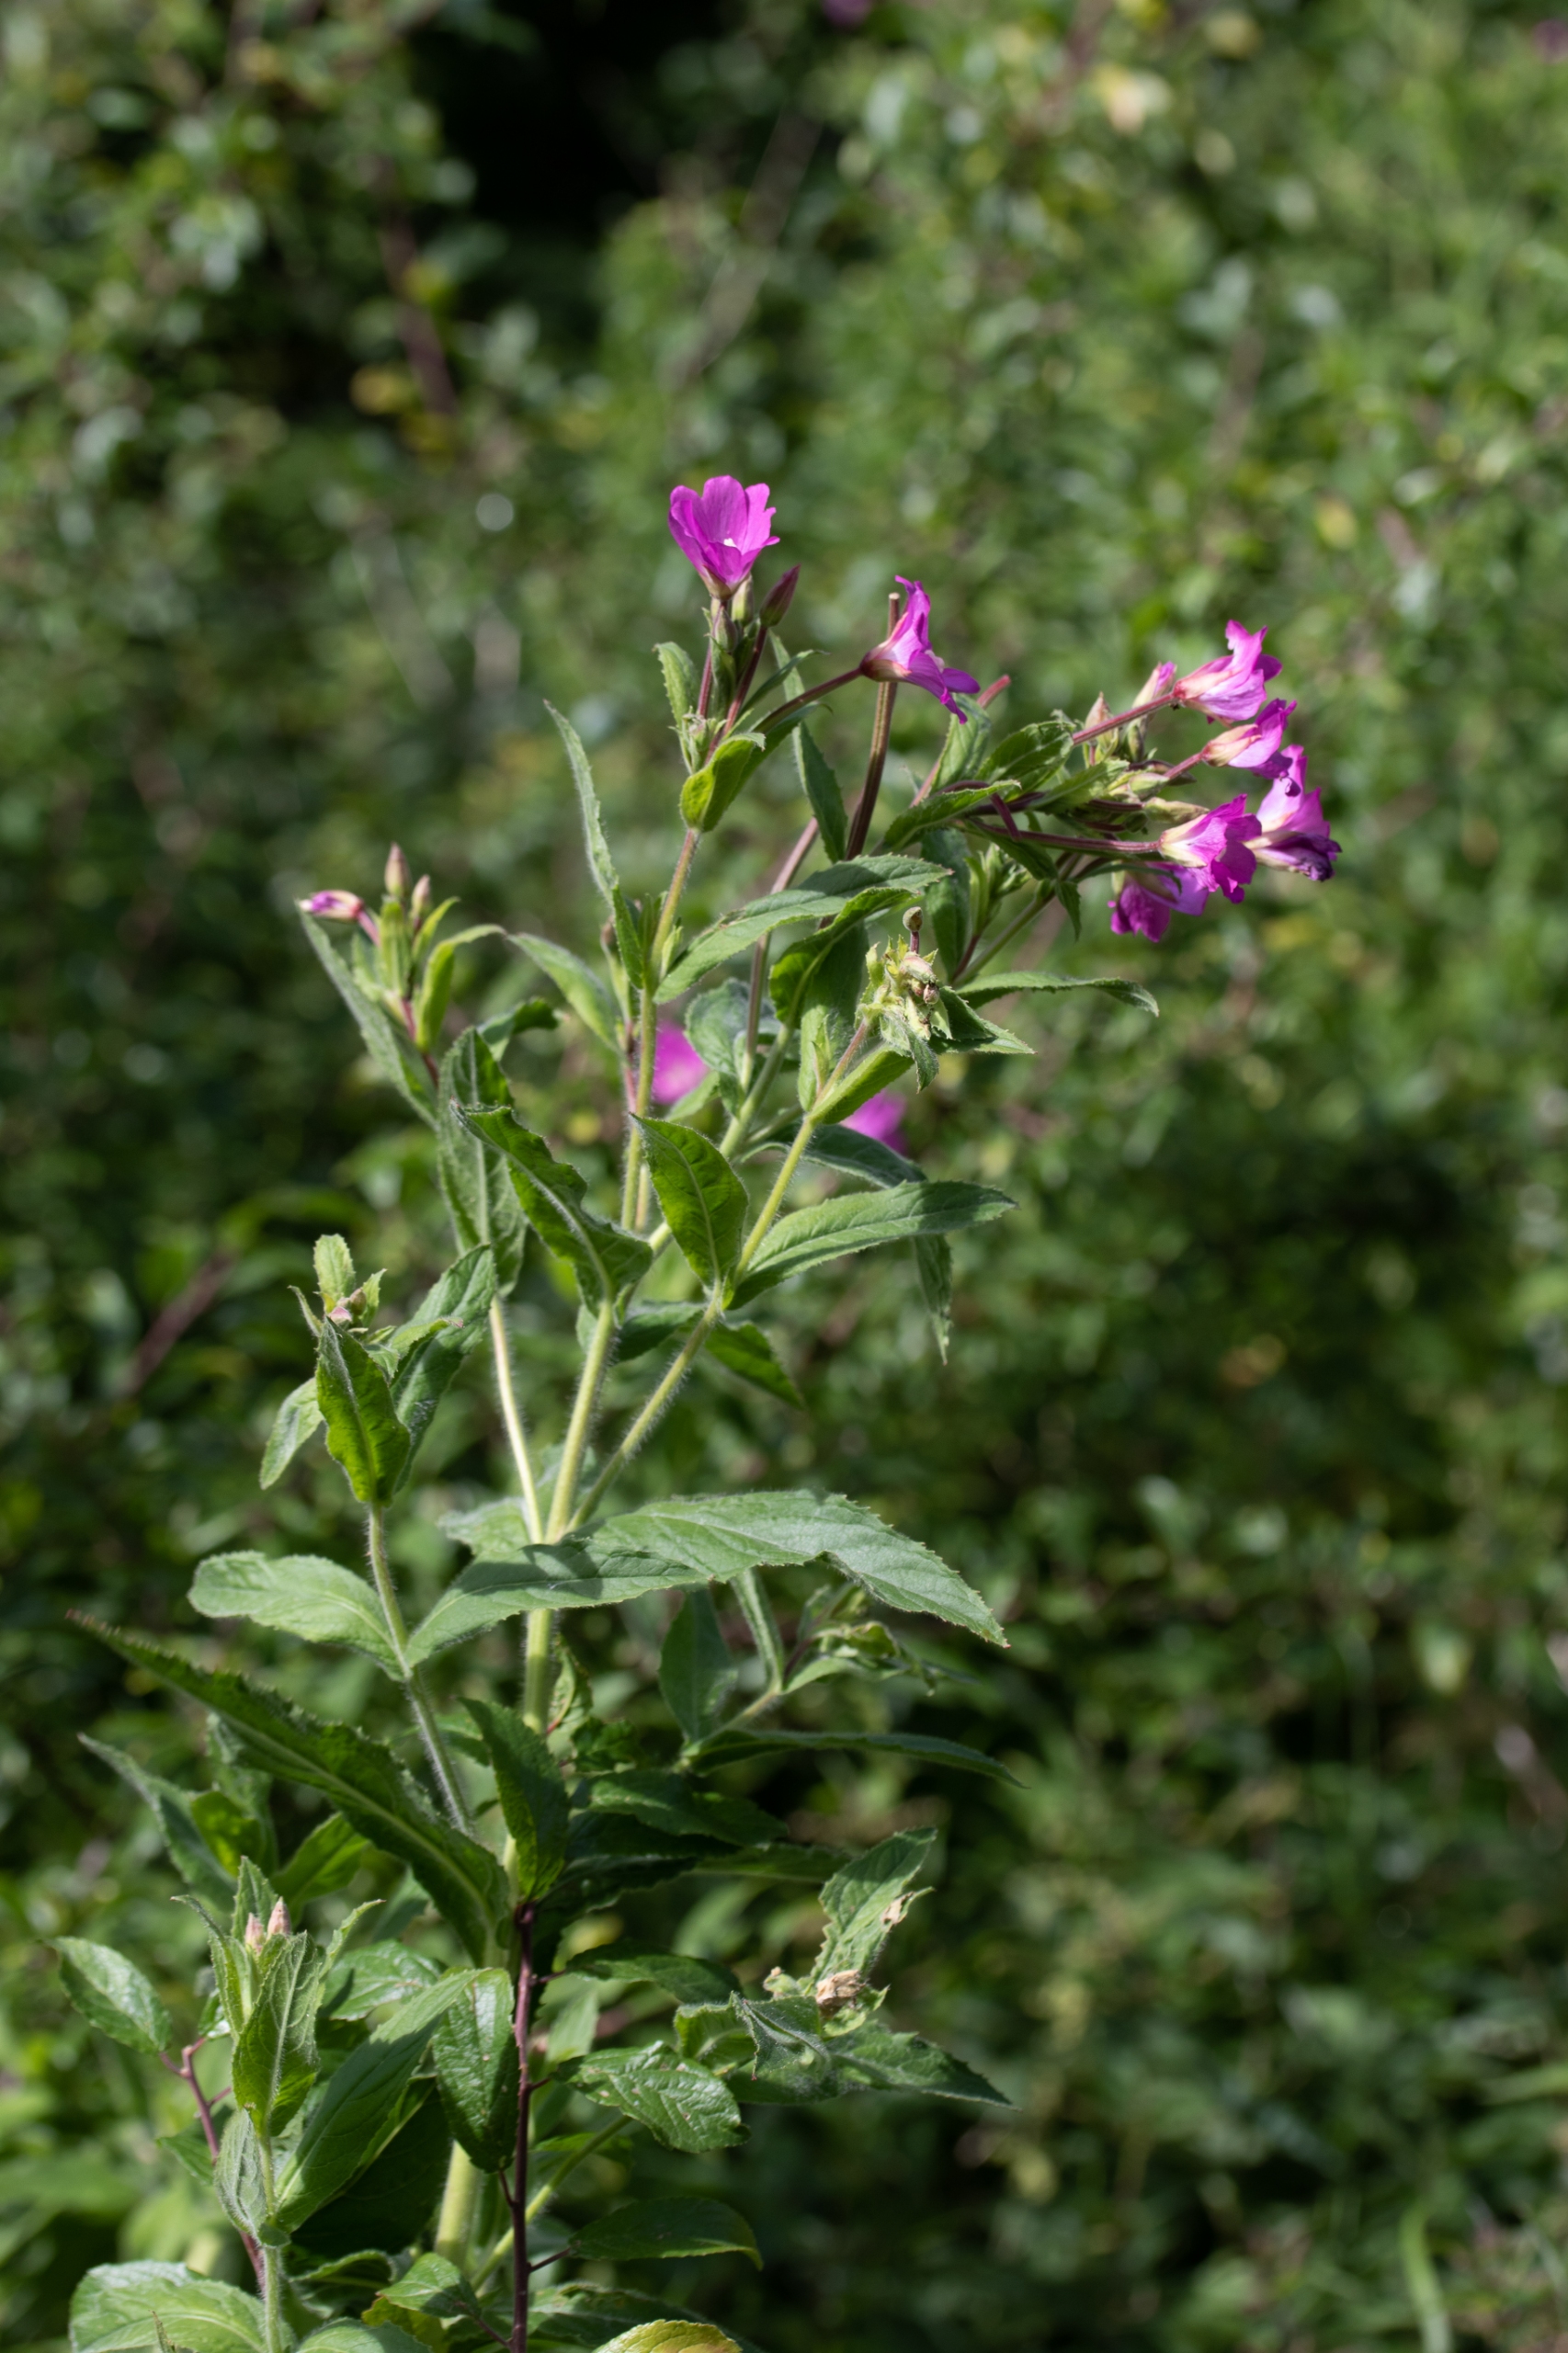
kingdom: Plantae
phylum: Tracheophyta
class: Magnoliopsida
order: Myrtales
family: Onagraceae
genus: Epilobium
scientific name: Epilobium hirsutum
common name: Lådden dueurt
